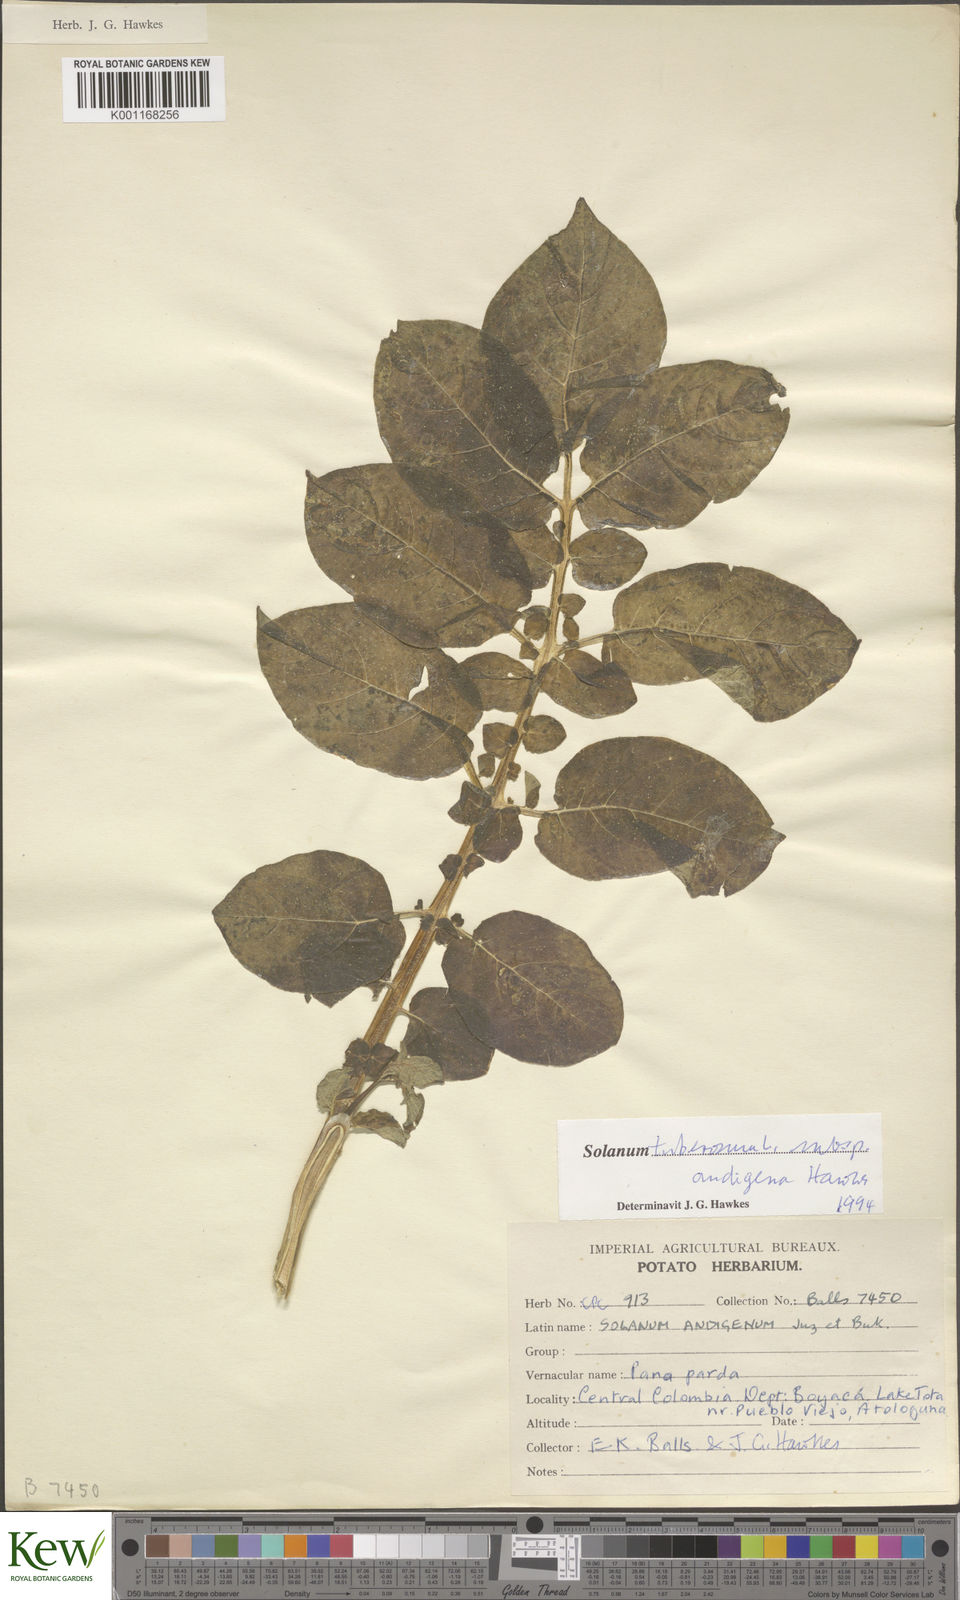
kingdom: Plantae
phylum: Tracheophyta
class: Magnoliopsida
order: Solanales
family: Solanaceae
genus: Solanum
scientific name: Solanum tuberosum
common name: Potato
